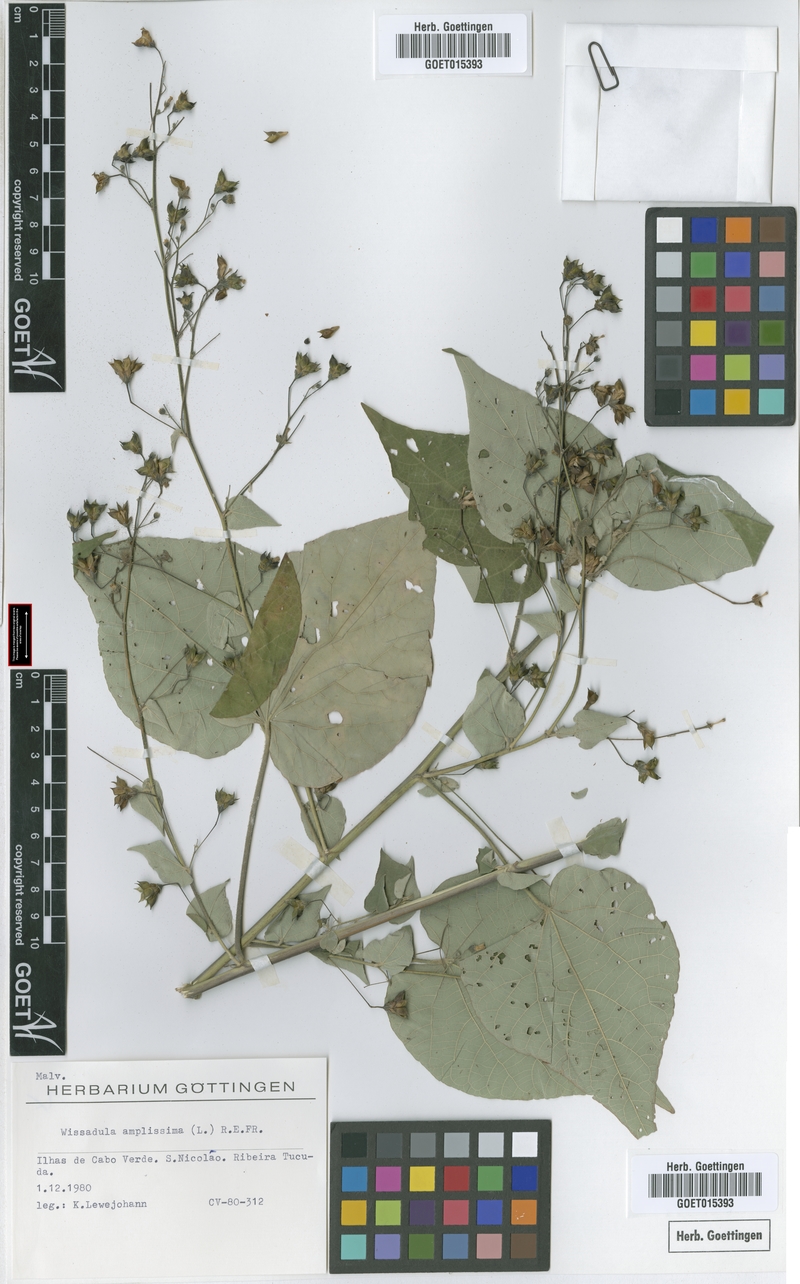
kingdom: Plantae
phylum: Tracheophyta
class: Magnoliopsida
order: Malvales
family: Malvaceae
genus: Wissadula
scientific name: Wissadula amplissima
